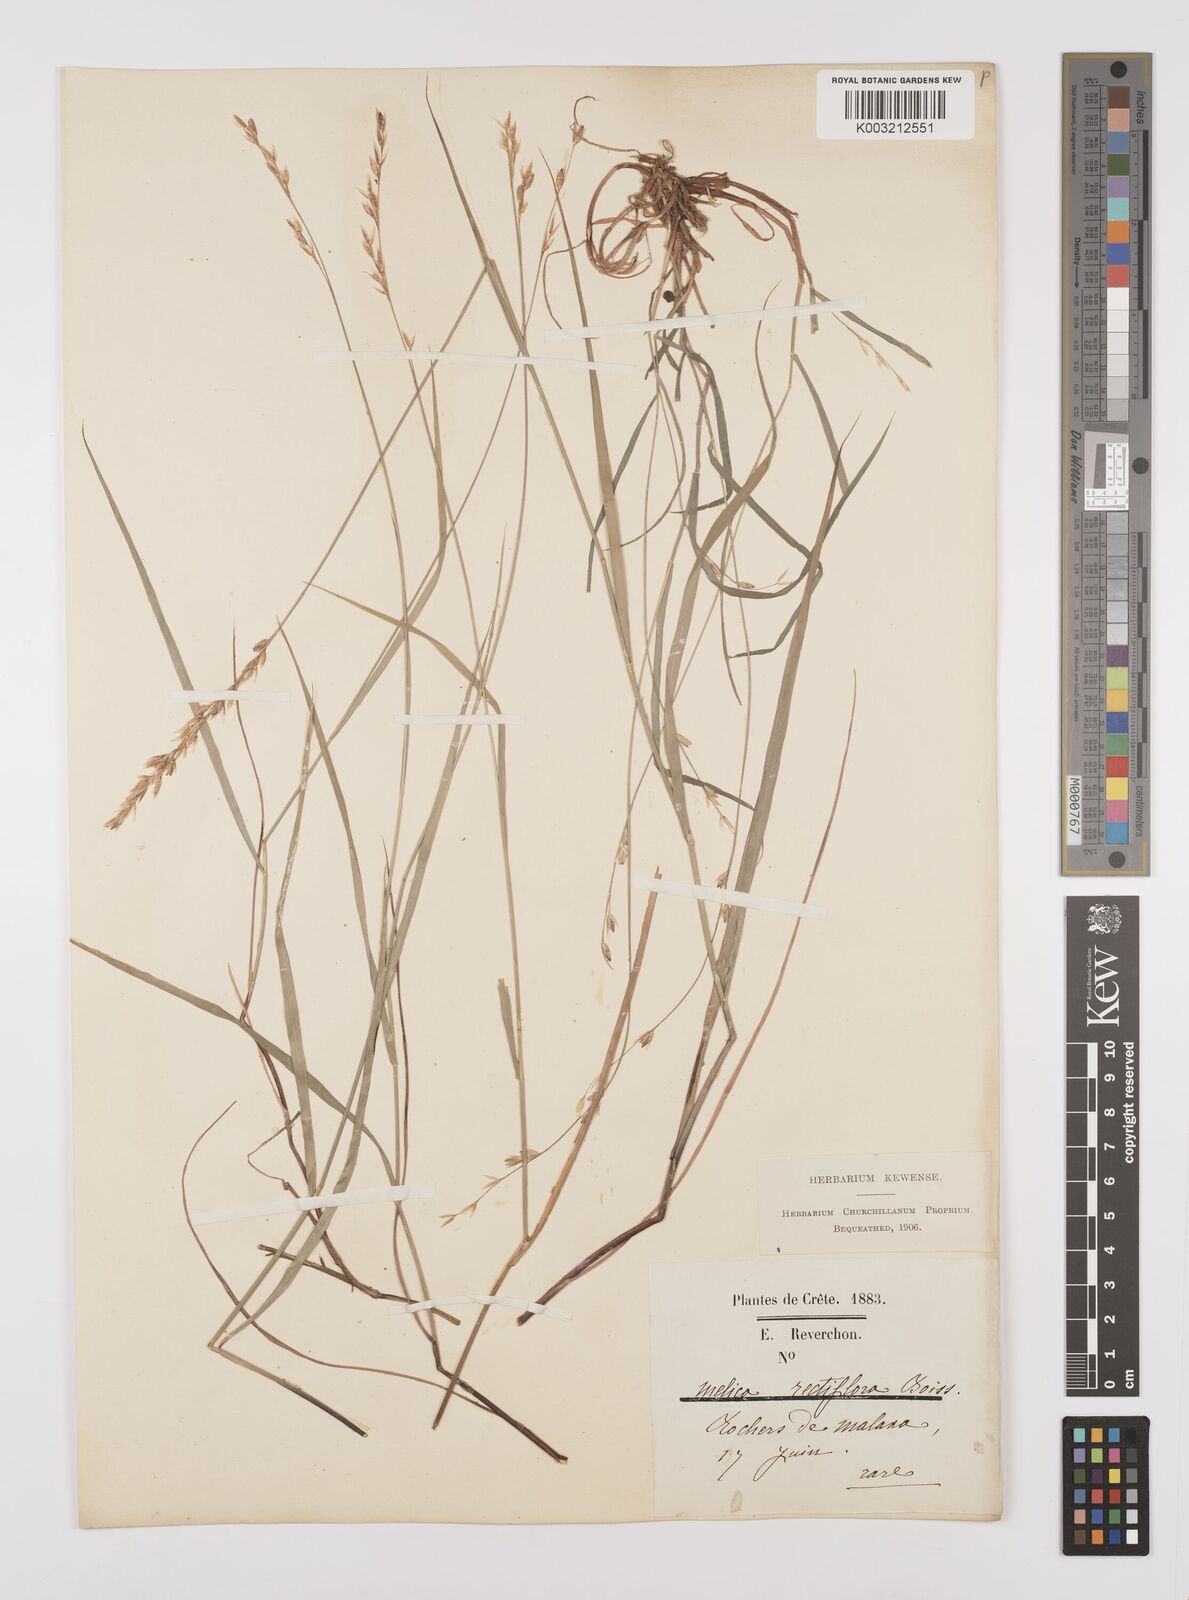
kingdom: Plantae
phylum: Tracheophyta
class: Liliopsida
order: Poales
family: Poaceae
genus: Melica
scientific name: Melica rectiflora
